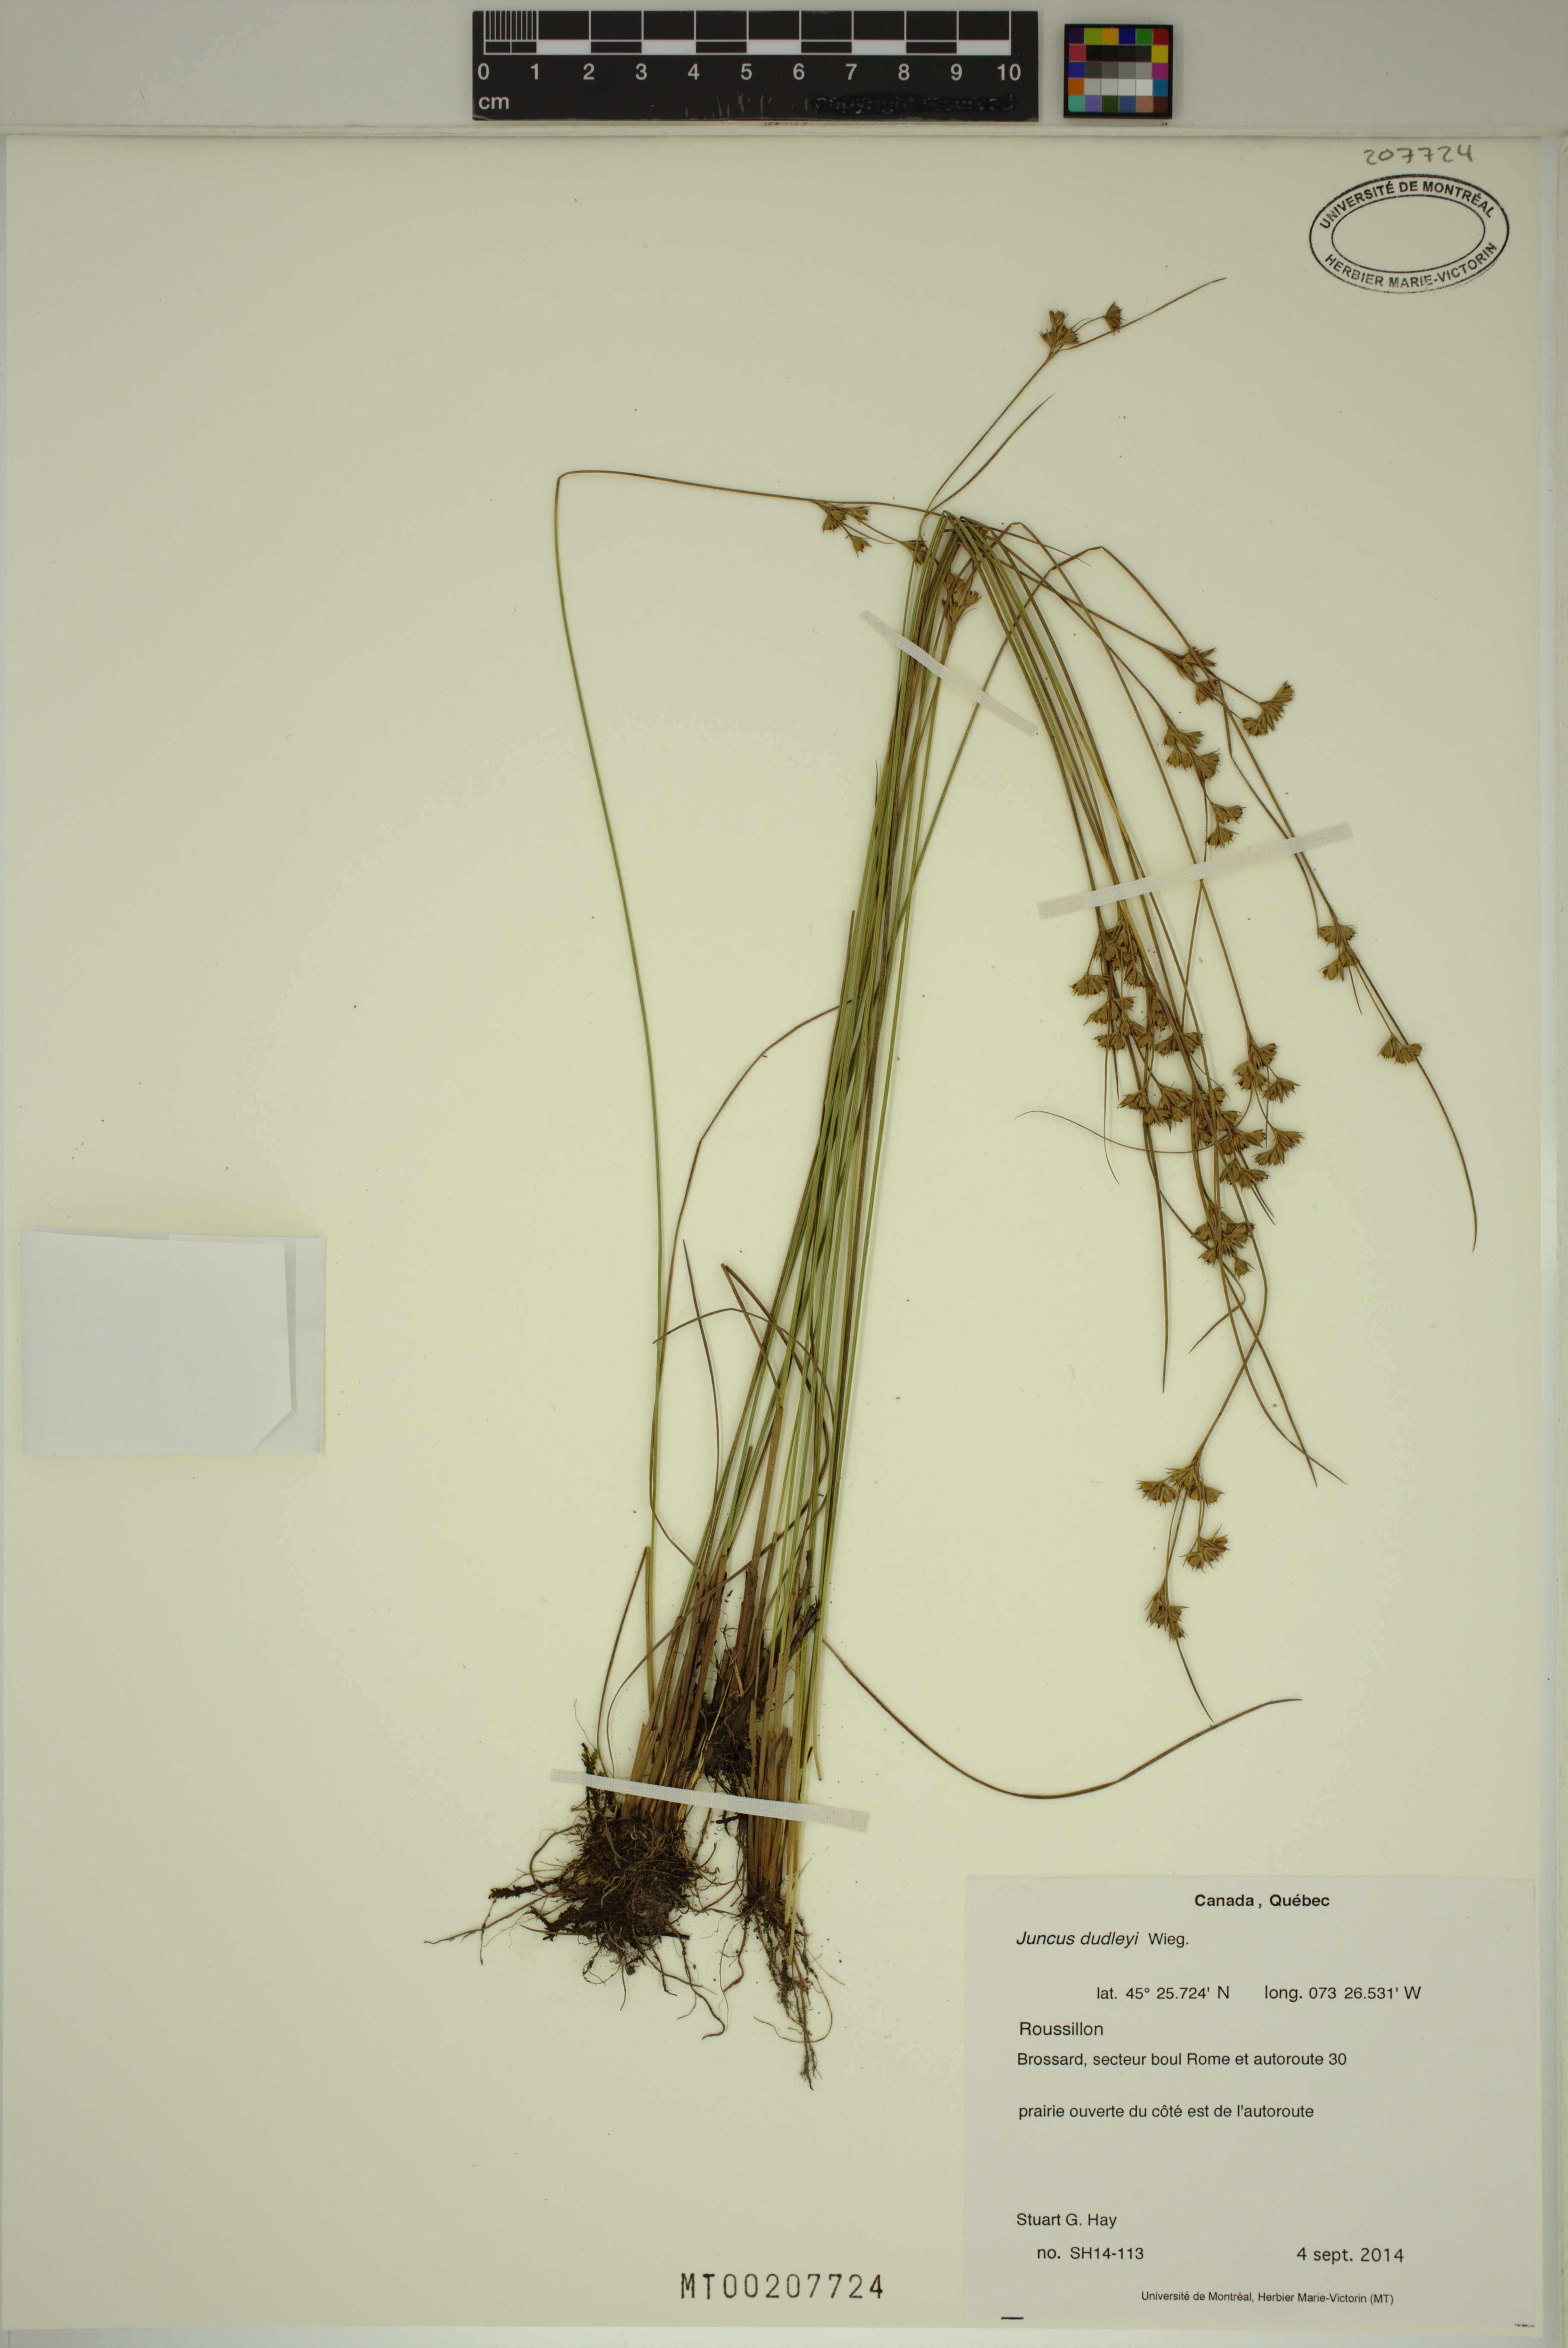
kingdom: Plantae
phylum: Tracheophyta
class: Liliopsida
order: Poales
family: Juncaceae
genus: Juncus
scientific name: Juncus dudleyi
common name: Dudley's rush
